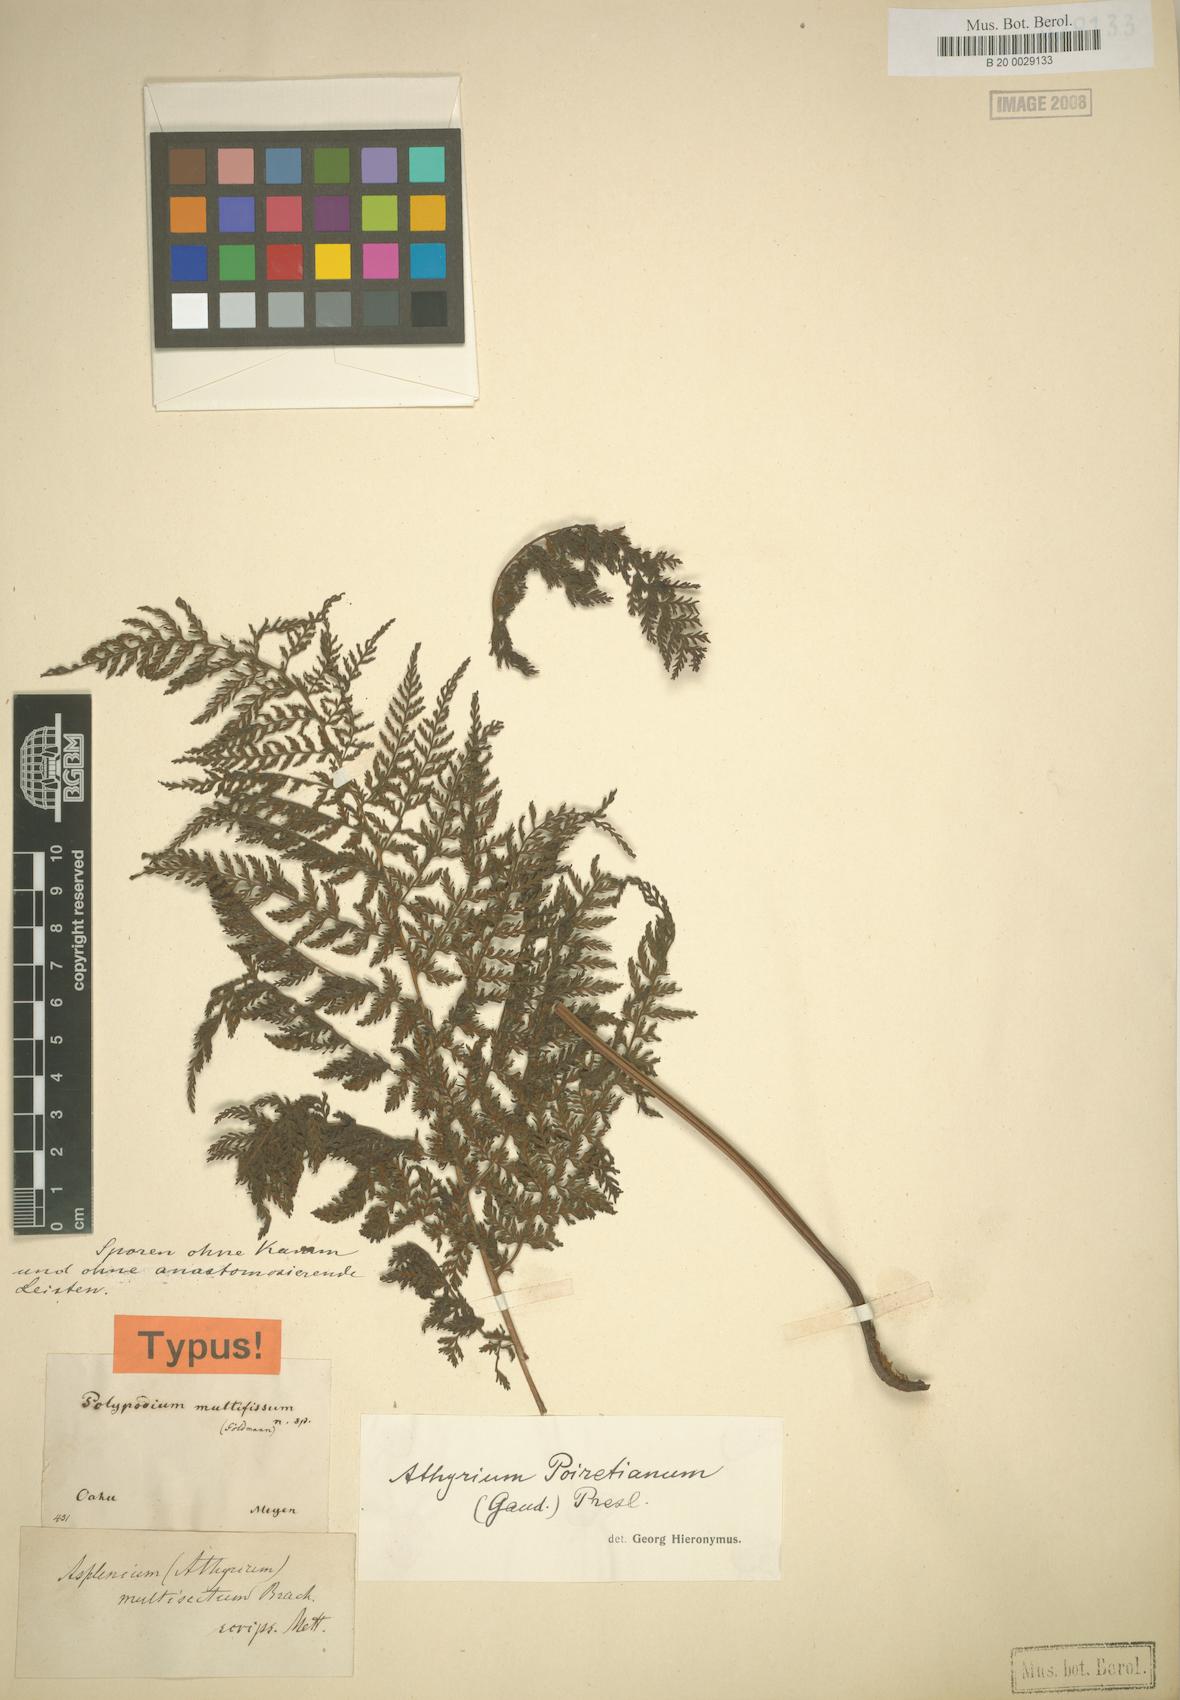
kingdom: Plantae
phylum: Tracheophyta
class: Polypodiopsida
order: Polypodiales
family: Athyriaceae
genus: Athyrium
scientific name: Athyrium microphyllum
